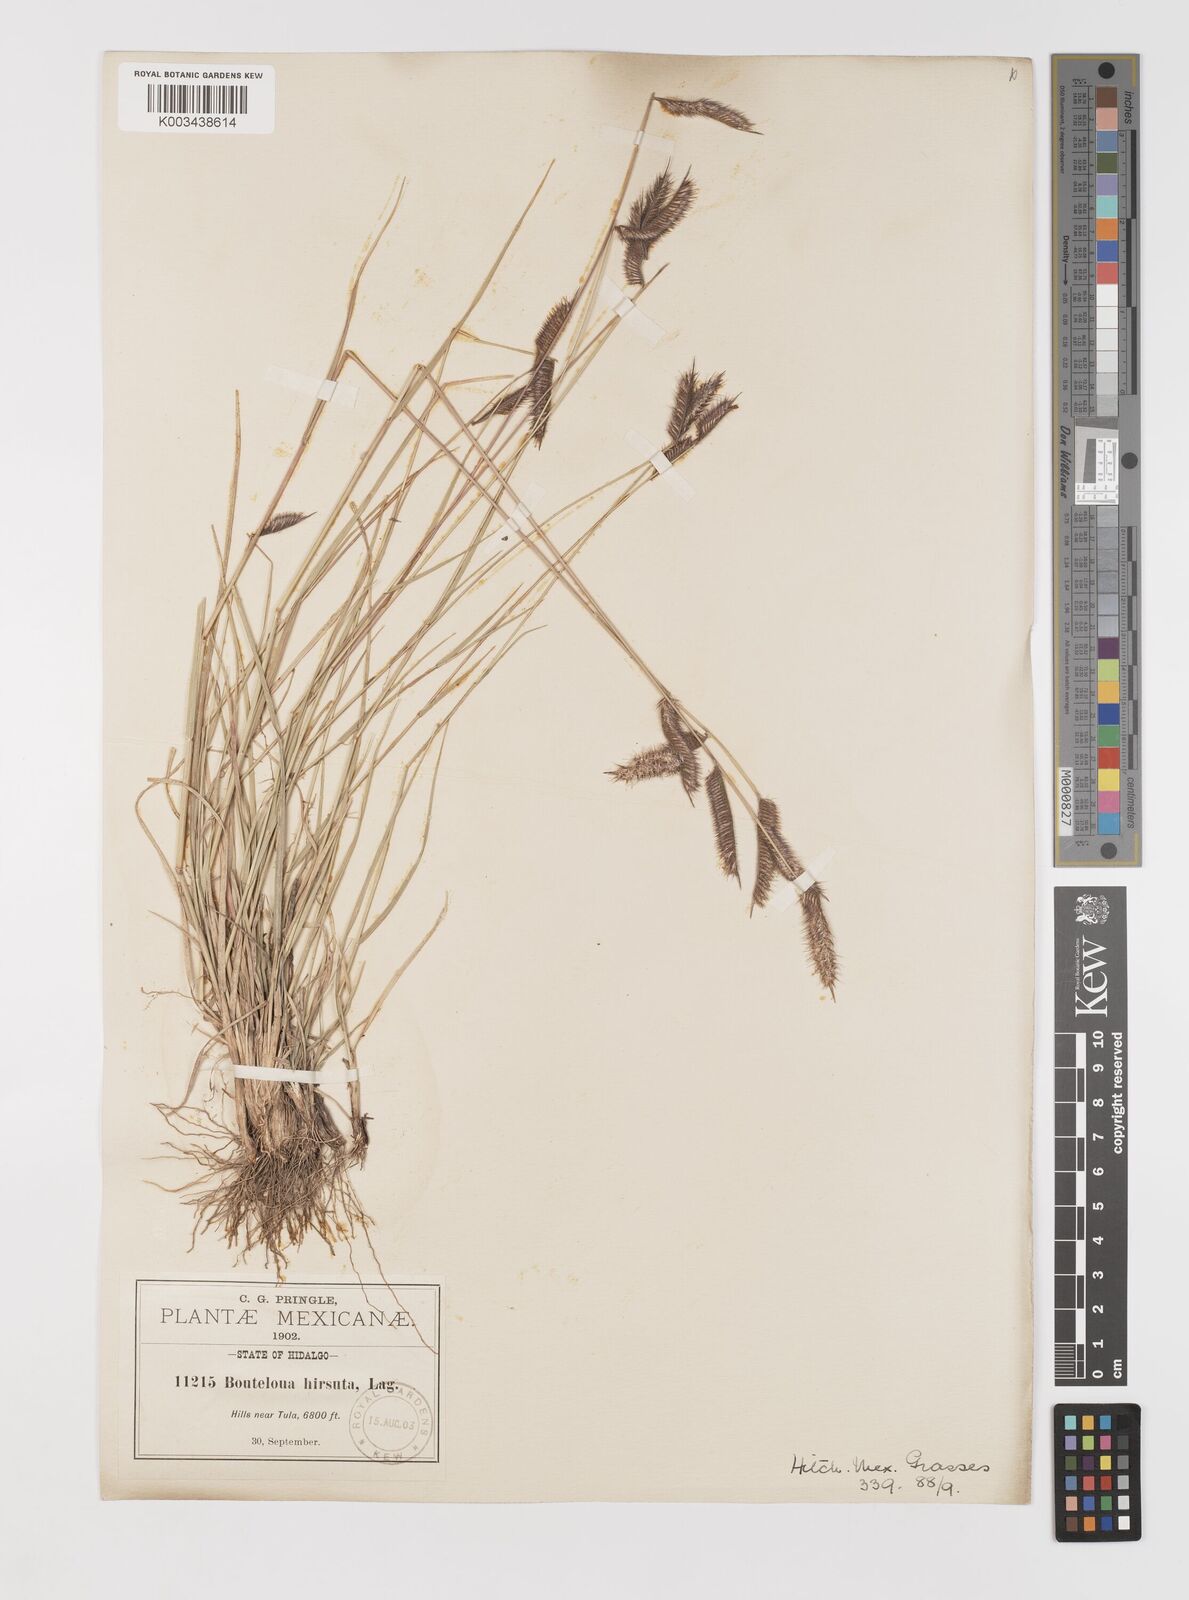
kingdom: Plantae
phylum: Tracheophyta
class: Liliopsida
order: Poales
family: Poaceae
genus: Bouteloua
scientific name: Bouteloua hirsuta
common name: Hairy grama
